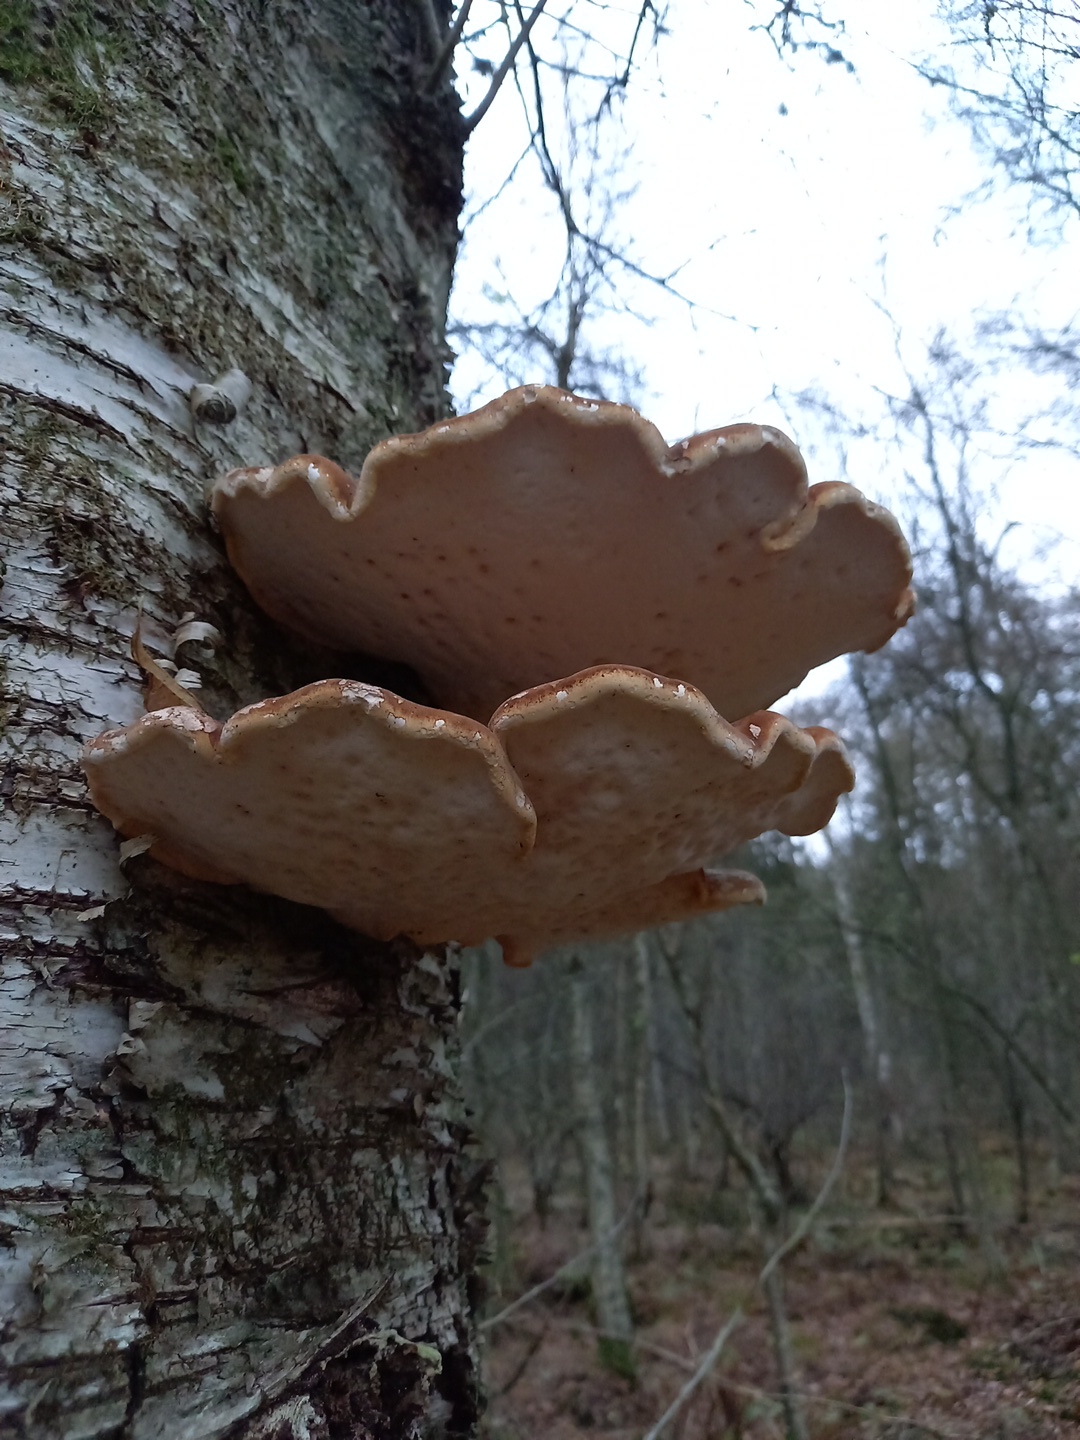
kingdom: Fungi
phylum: Basidiomycota
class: Agaricomycetes
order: Polyporales
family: Fomitopsidaceae
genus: Fomitopsis
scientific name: Fomitopsis betulina
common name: birkeporesvamp
